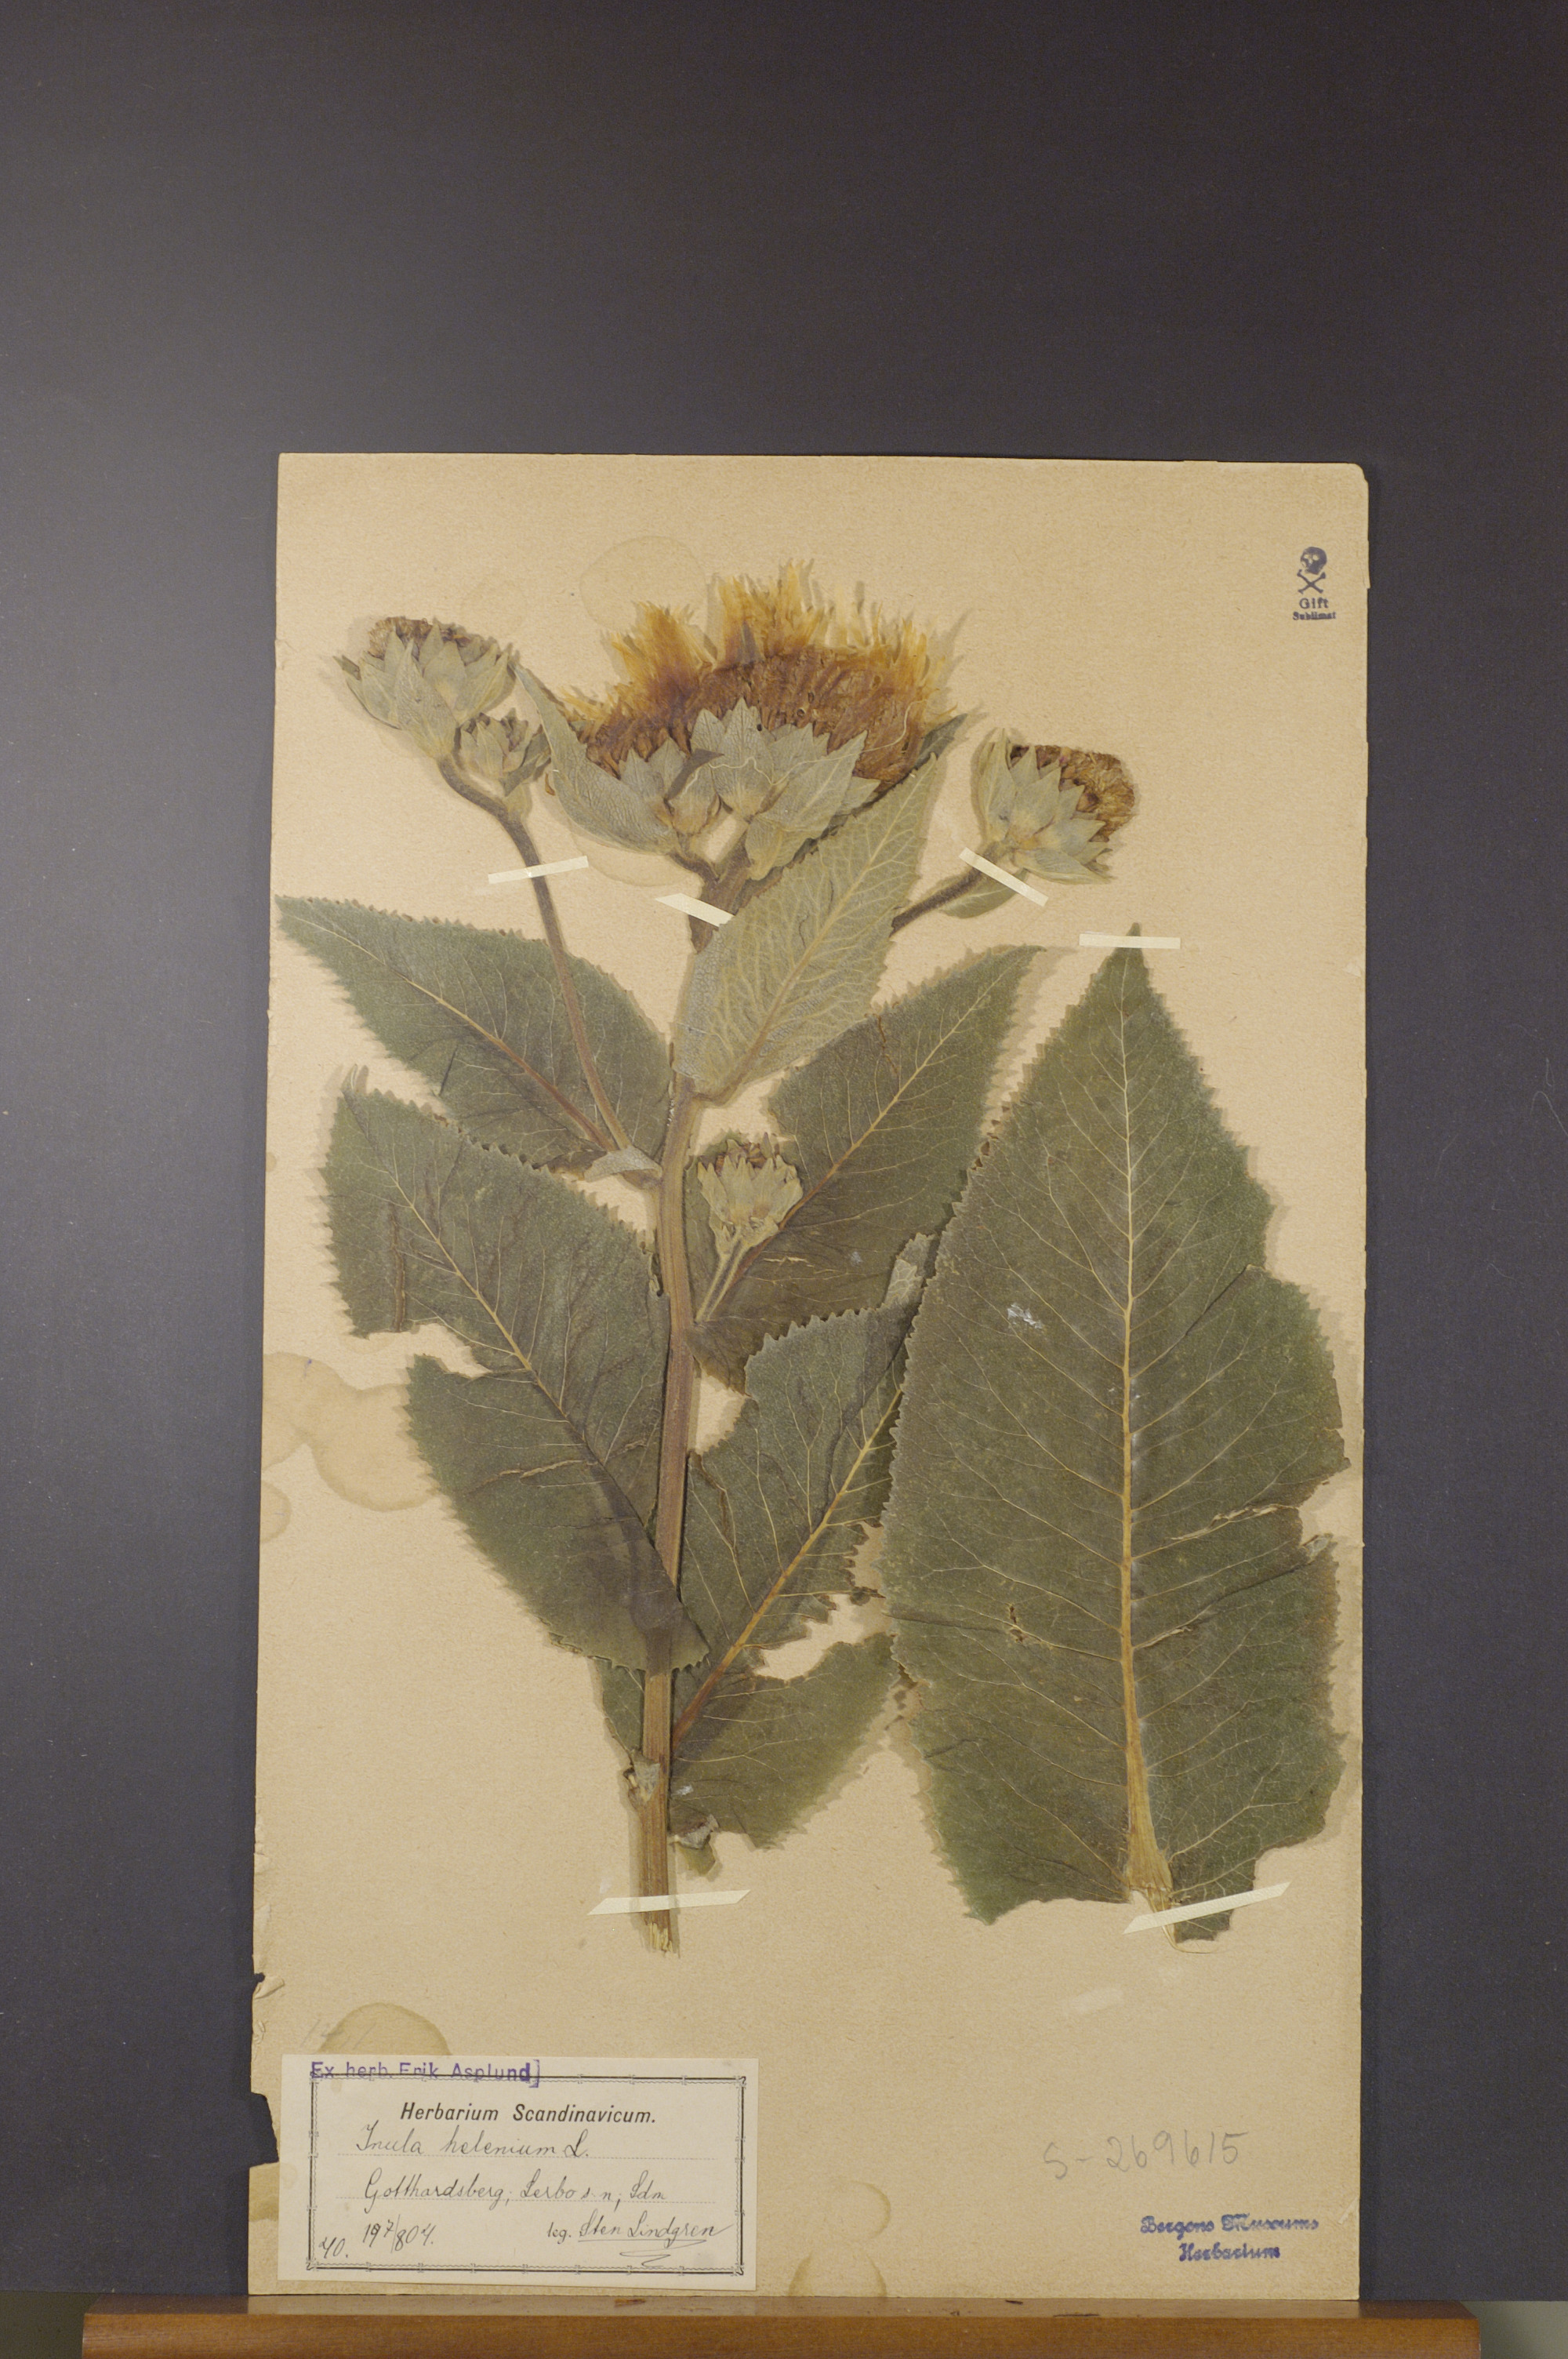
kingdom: Plantae
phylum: Tracheophyta
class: Magnoliopsida
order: Asterales
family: Asteraceae
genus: Inula
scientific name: Inula helenium
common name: Elecampane
